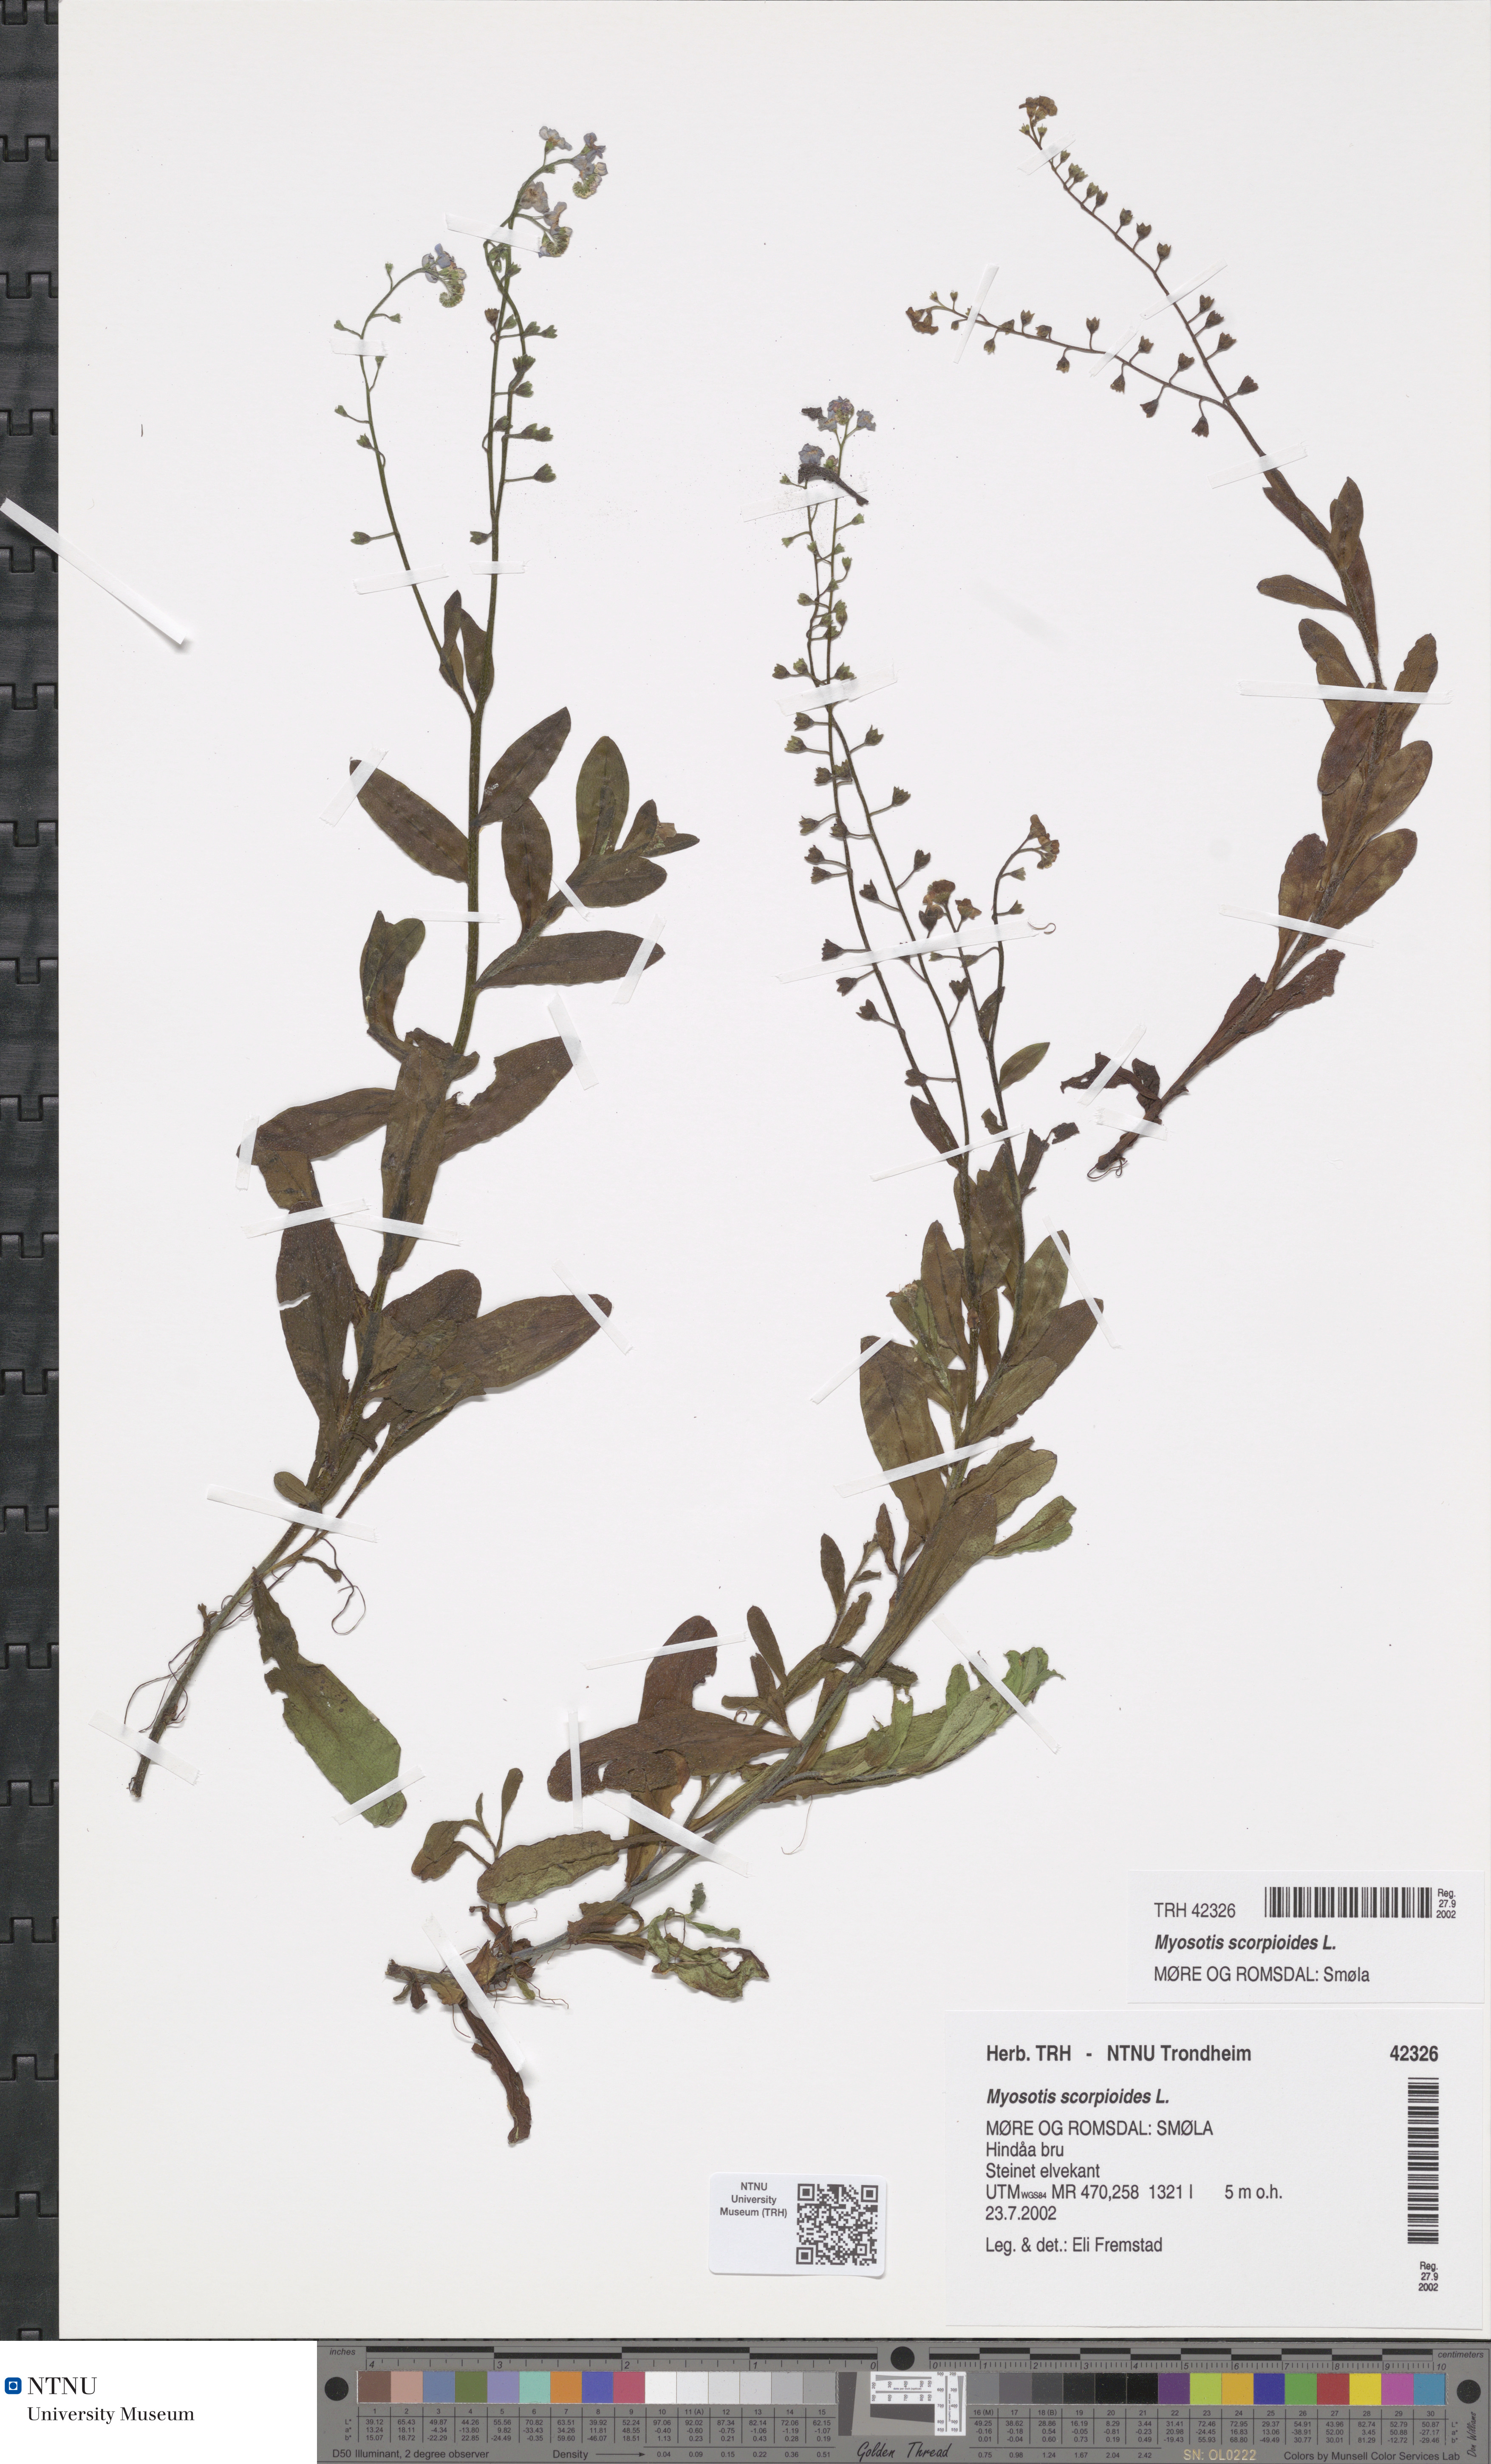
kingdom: Plantae
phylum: Tracheophyta
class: Magnoliopsida
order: Boraginales
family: Boraginaceae
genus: Myosotis
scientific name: Myosotis scorpioides
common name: Water forget-me-not
